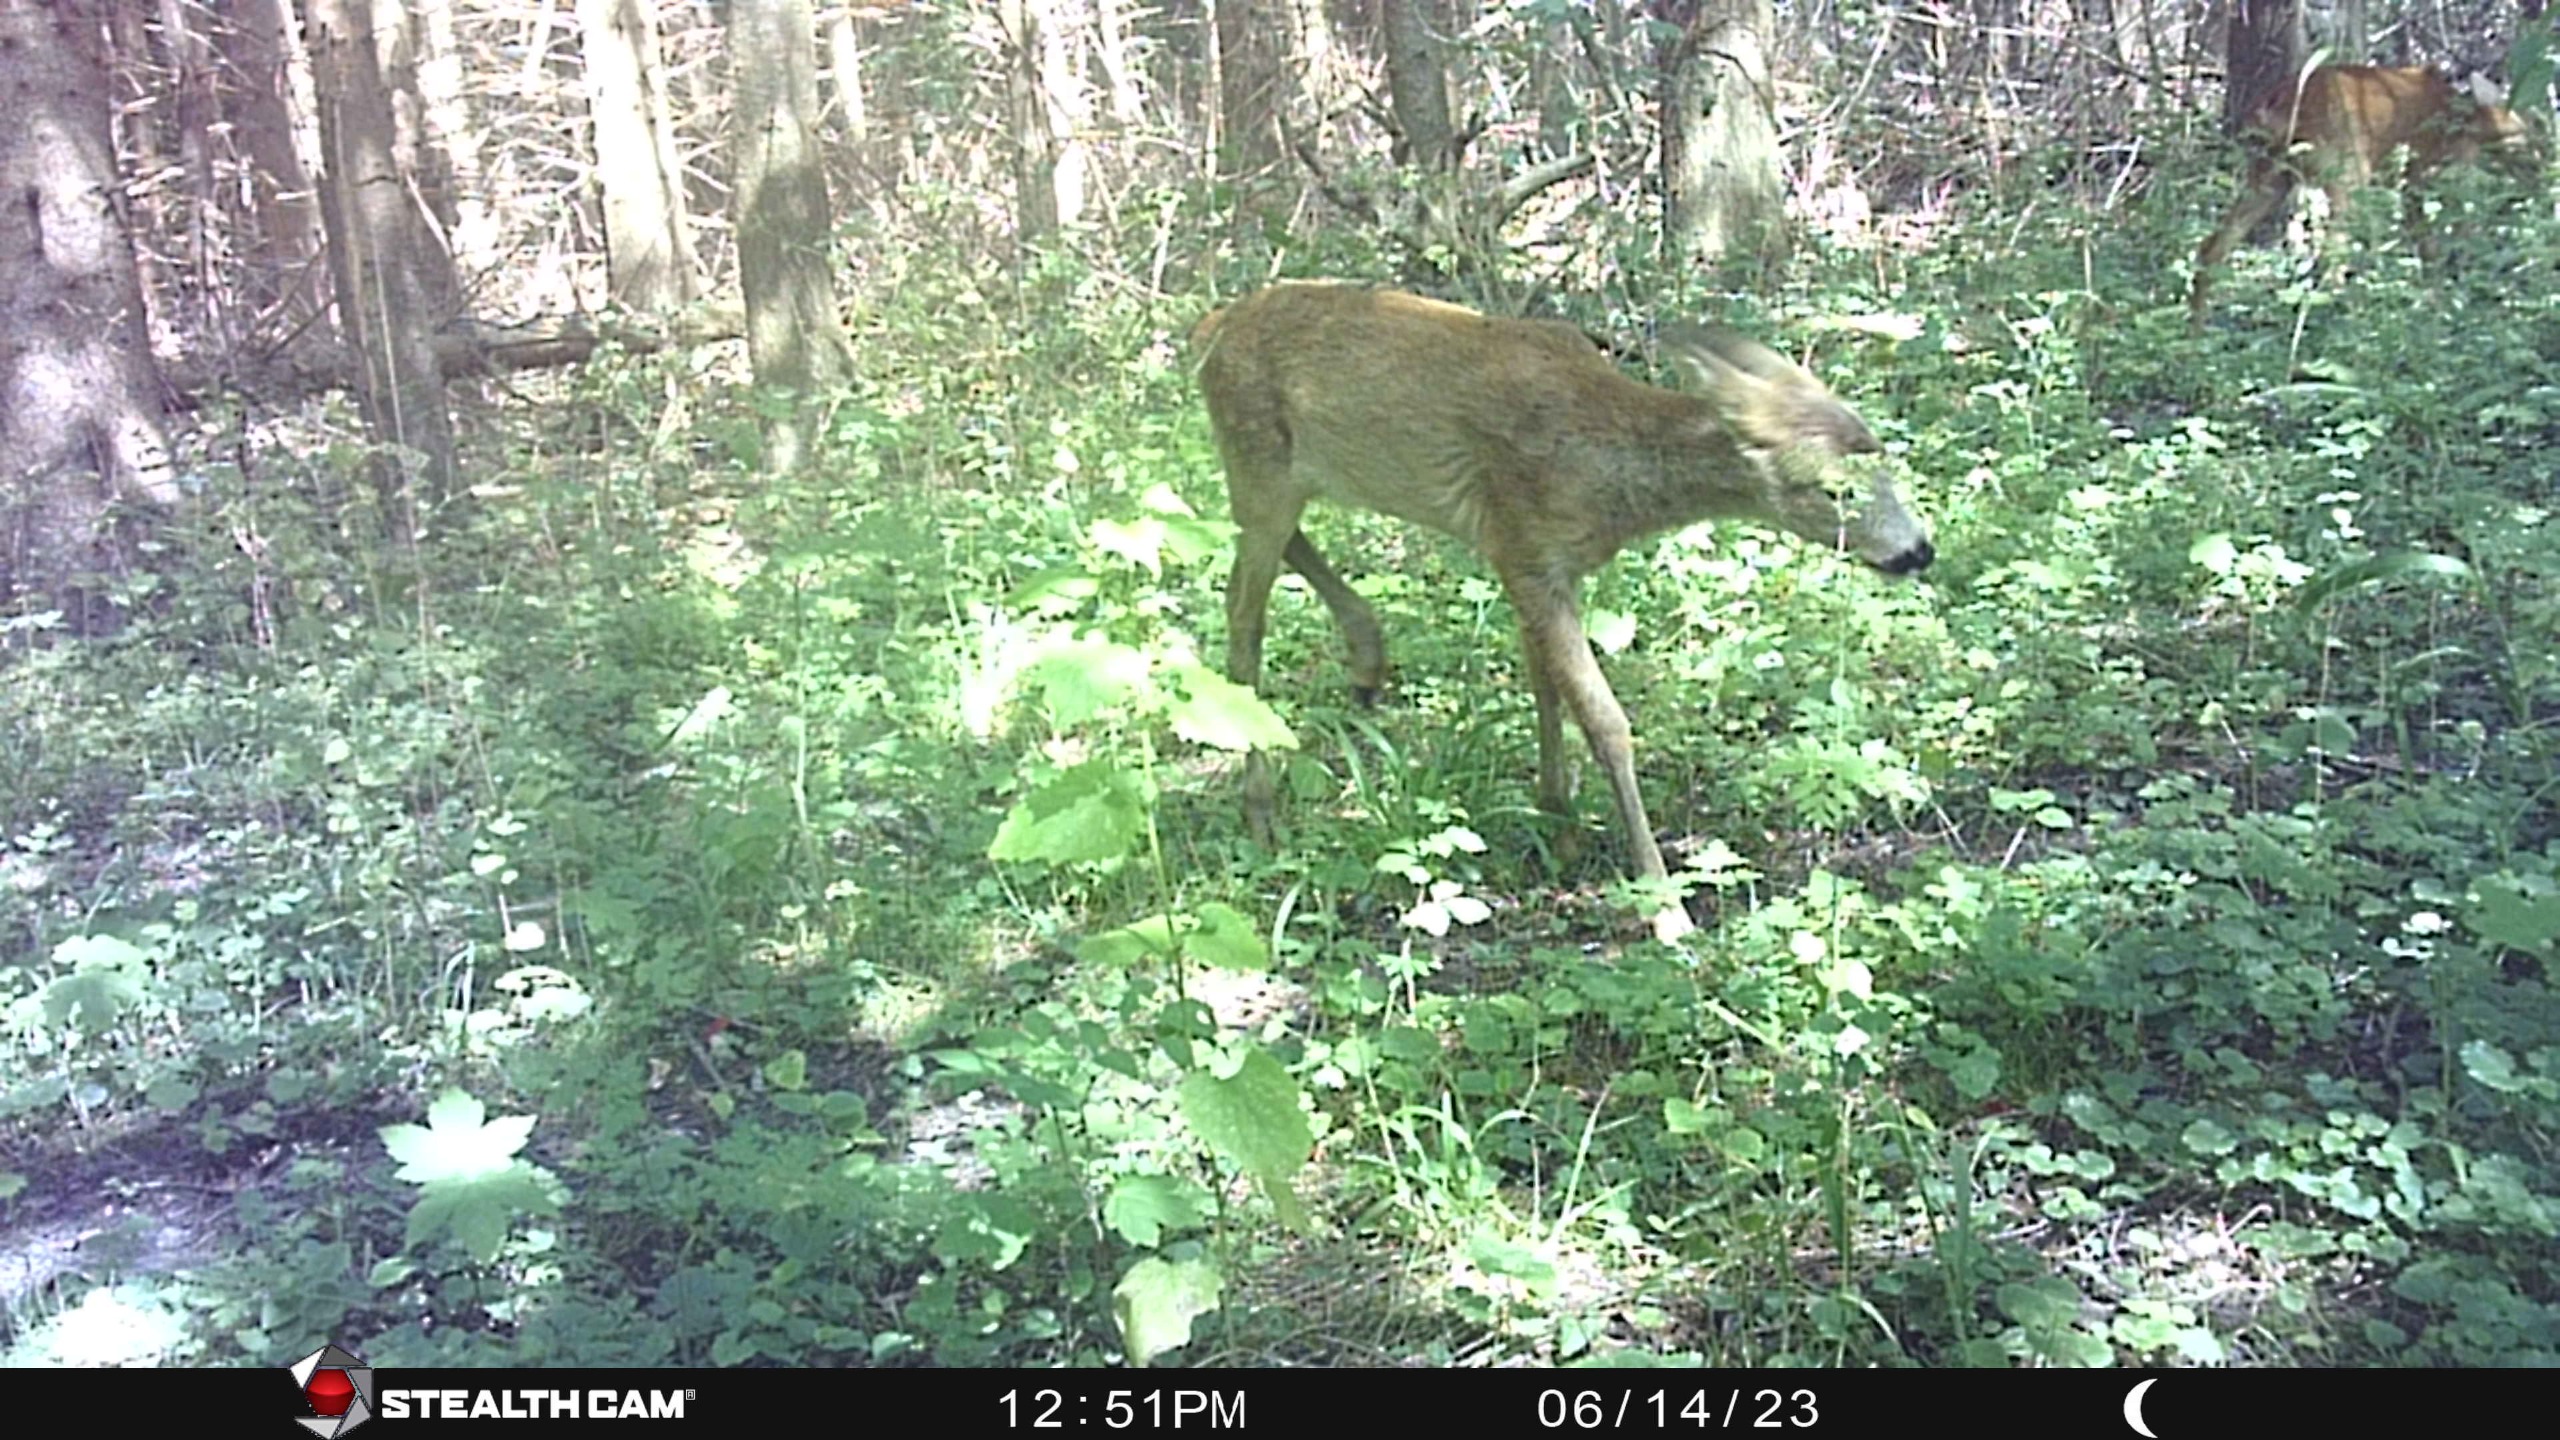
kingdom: Animalia
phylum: Chordata
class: Mammalia
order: Artiodactyla
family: Cervidae
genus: Capreolus
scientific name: Capreolus capreolus
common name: Rådyr
